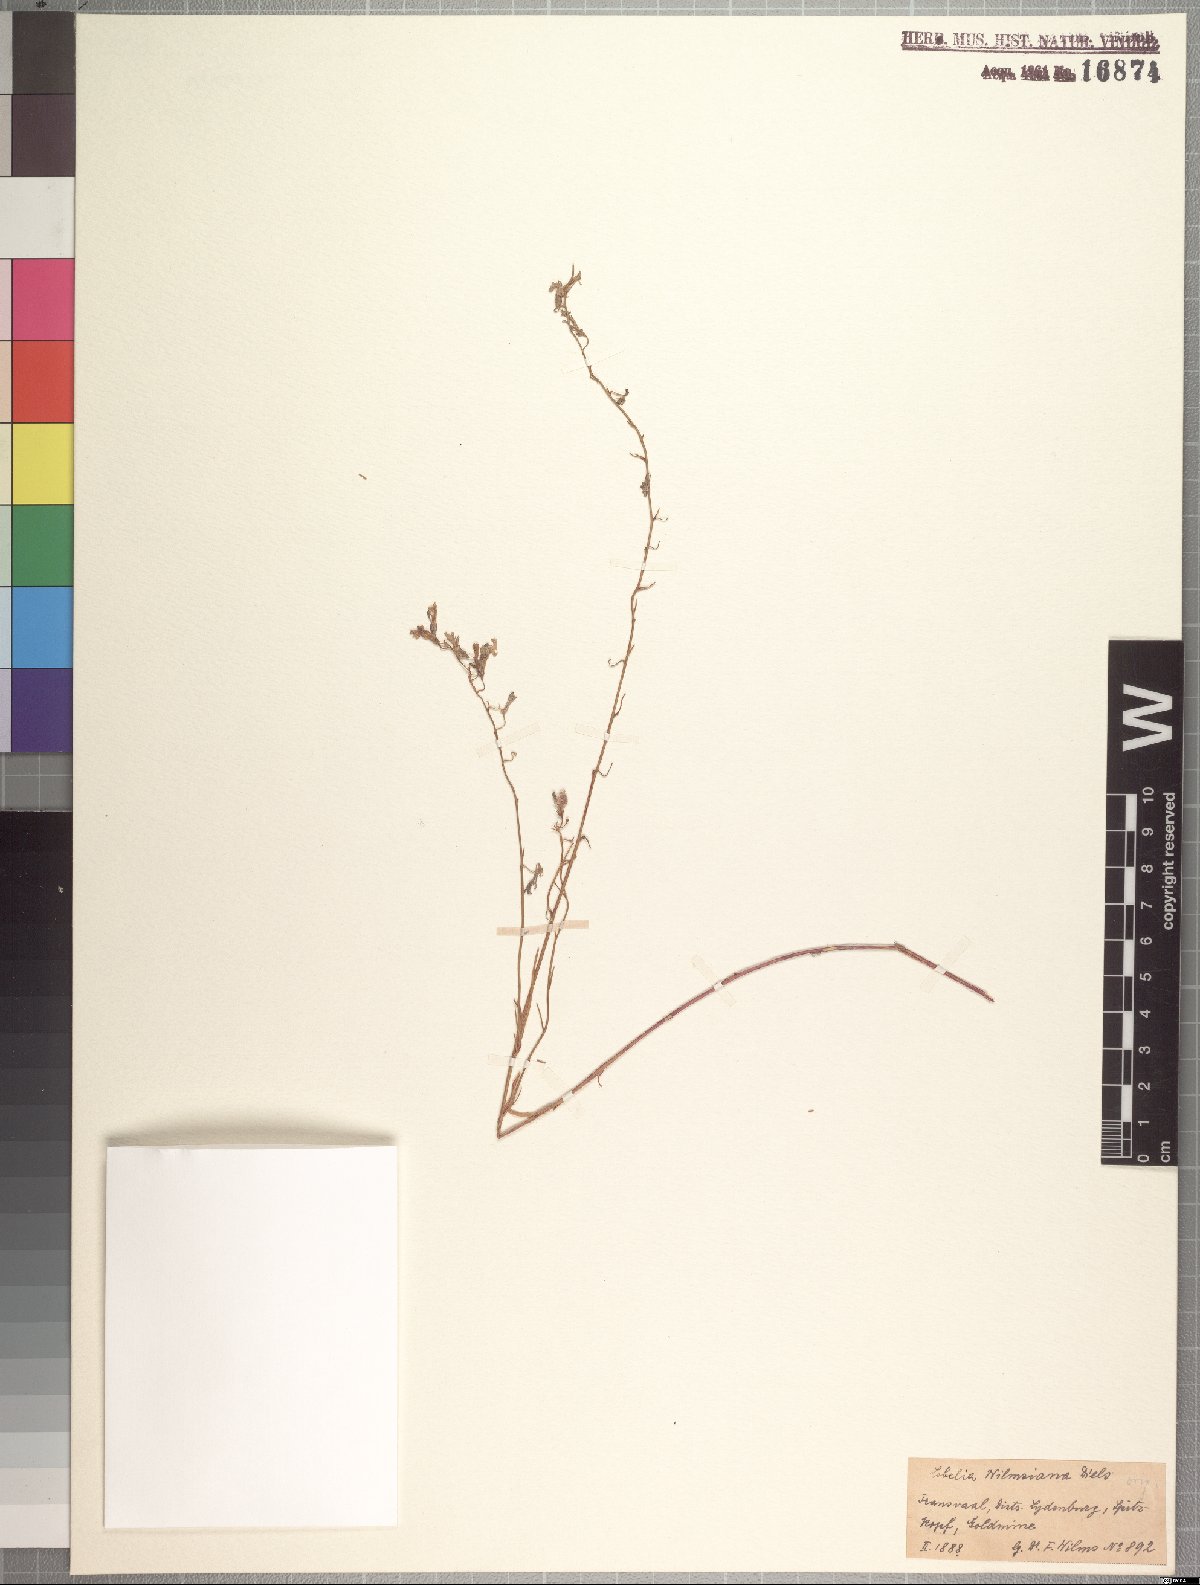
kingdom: Plantae
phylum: Tracheophyta
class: Magnoliopsida
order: Asterales
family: Campanulaceae
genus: Lobelia
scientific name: Lobelia wilmsiana
